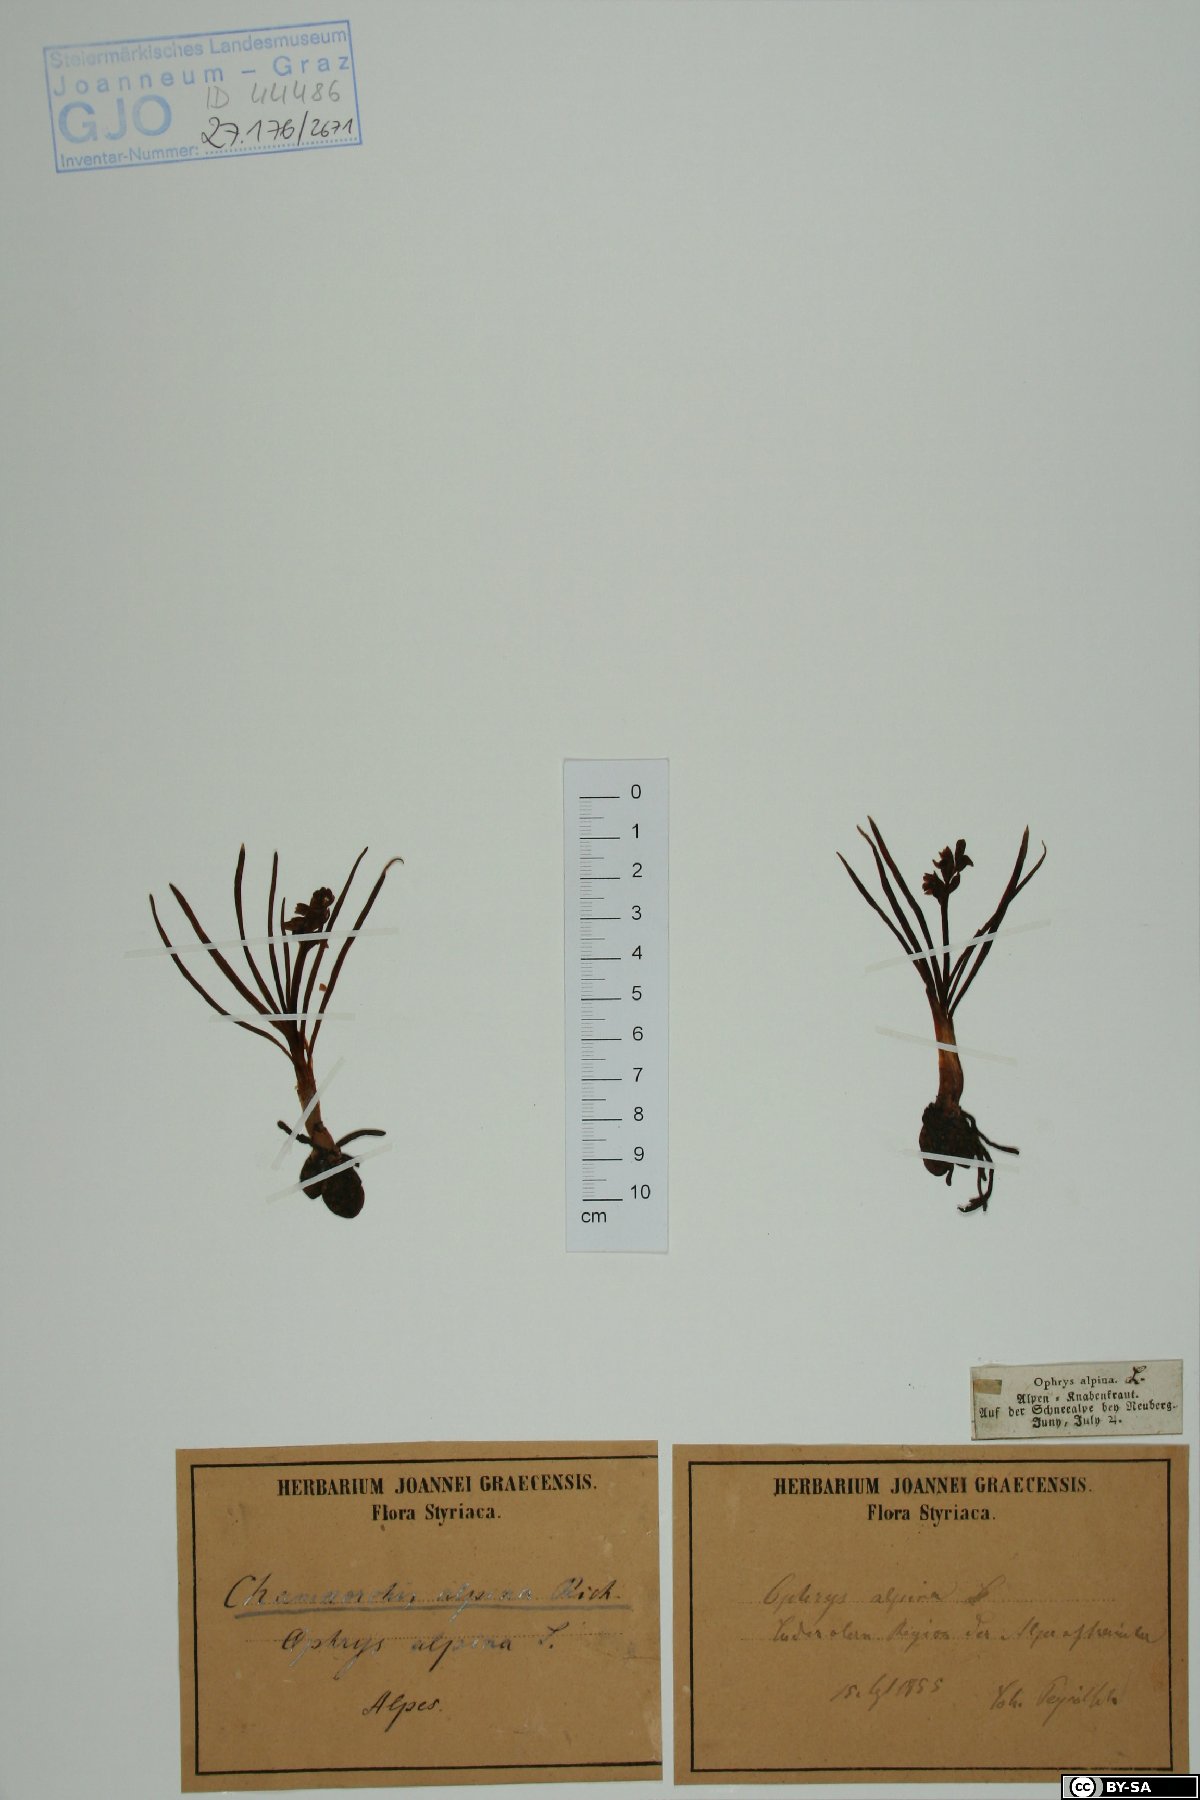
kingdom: Plantae
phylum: Tracheophyta
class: Liliopsida
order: Asparagales
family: Orchidaceae
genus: Chamorchis
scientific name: Chamorchis alpina
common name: Alpine chamorchis
